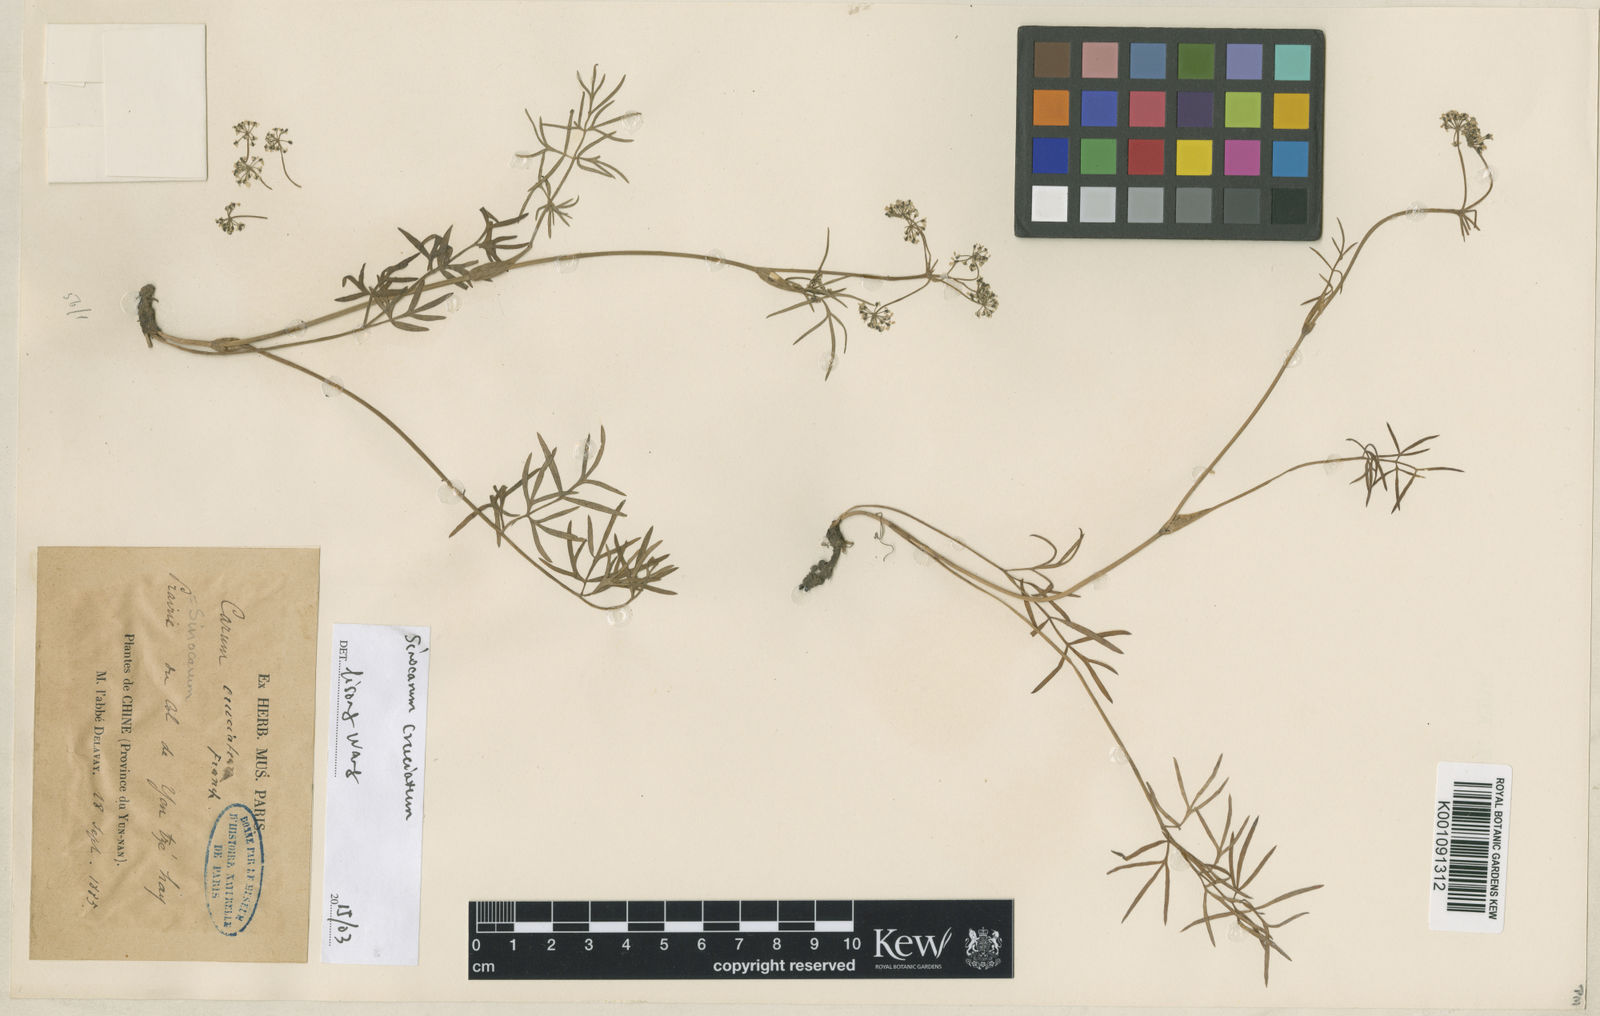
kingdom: Plantae
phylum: Tracheophyta
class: Magnoliopsida
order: Apiales
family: Apiaceae
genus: Sinocarum
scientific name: Sinocarum cruciatum
